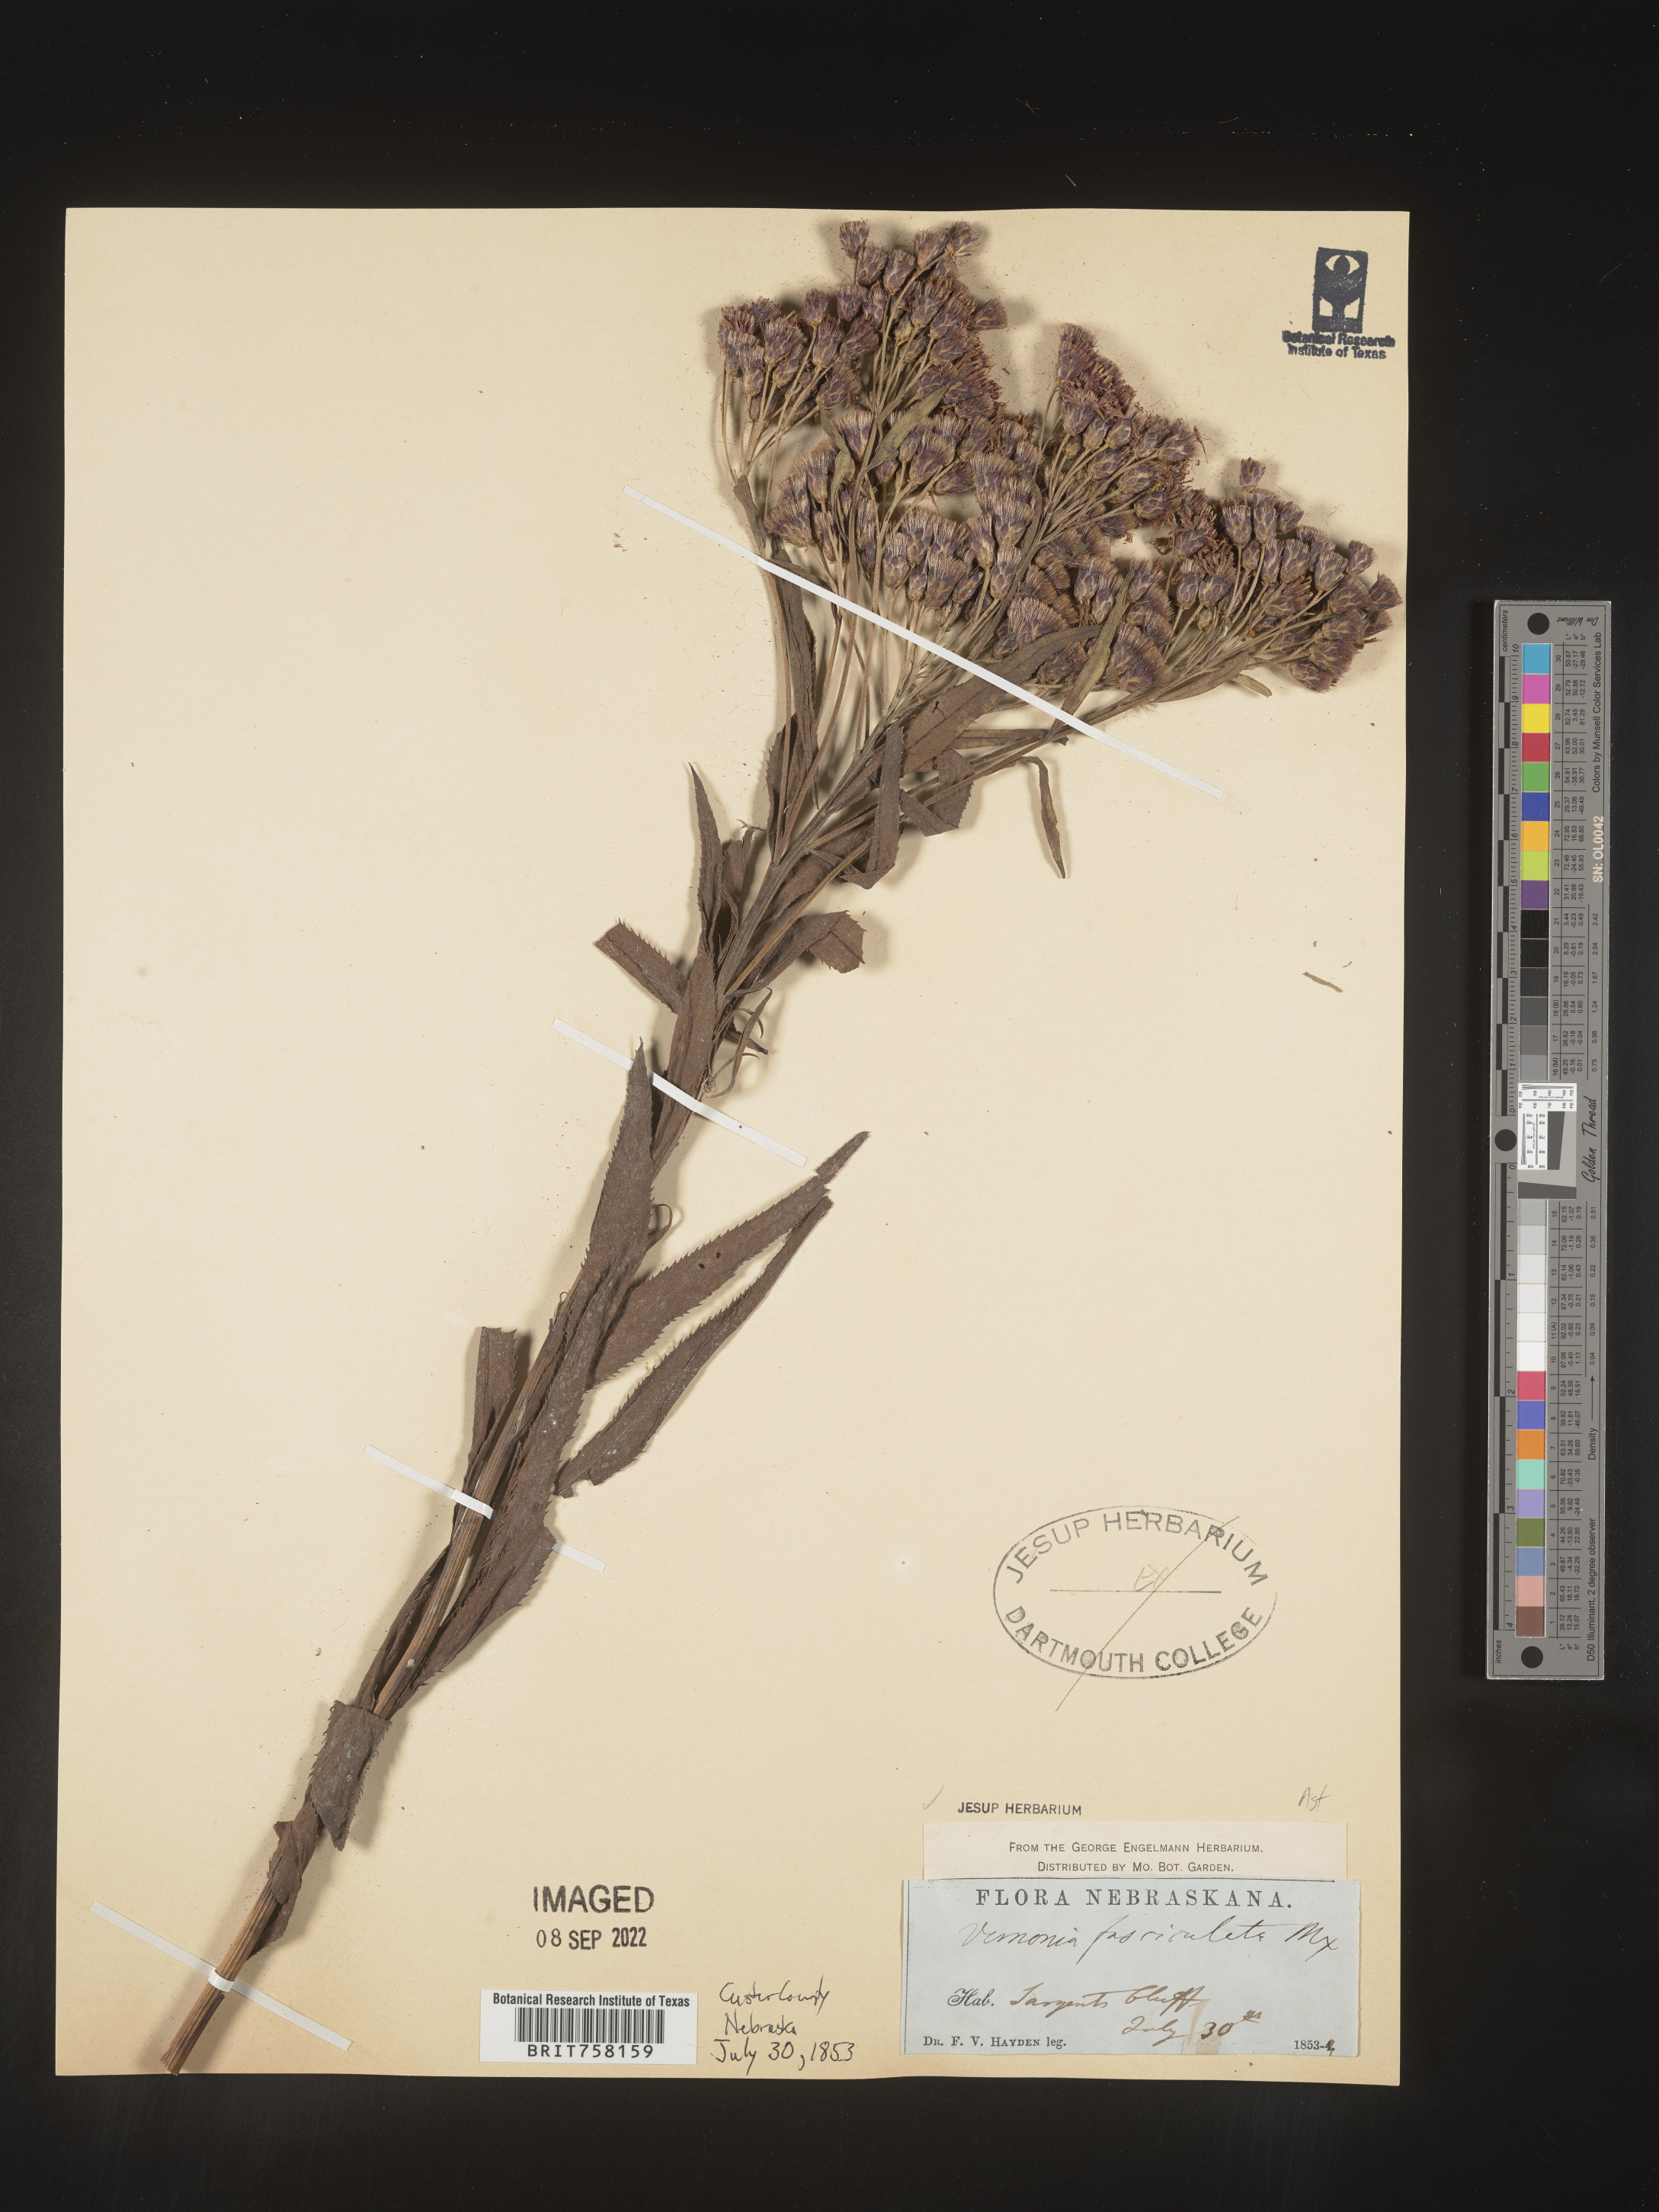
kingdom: Plantae
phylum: Tracheophyta
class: Magnoliopsida
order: Asterales
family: Asteraceae
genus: Vernonia
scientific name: Vernonia fasciculata
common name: Fascicled ironweed
